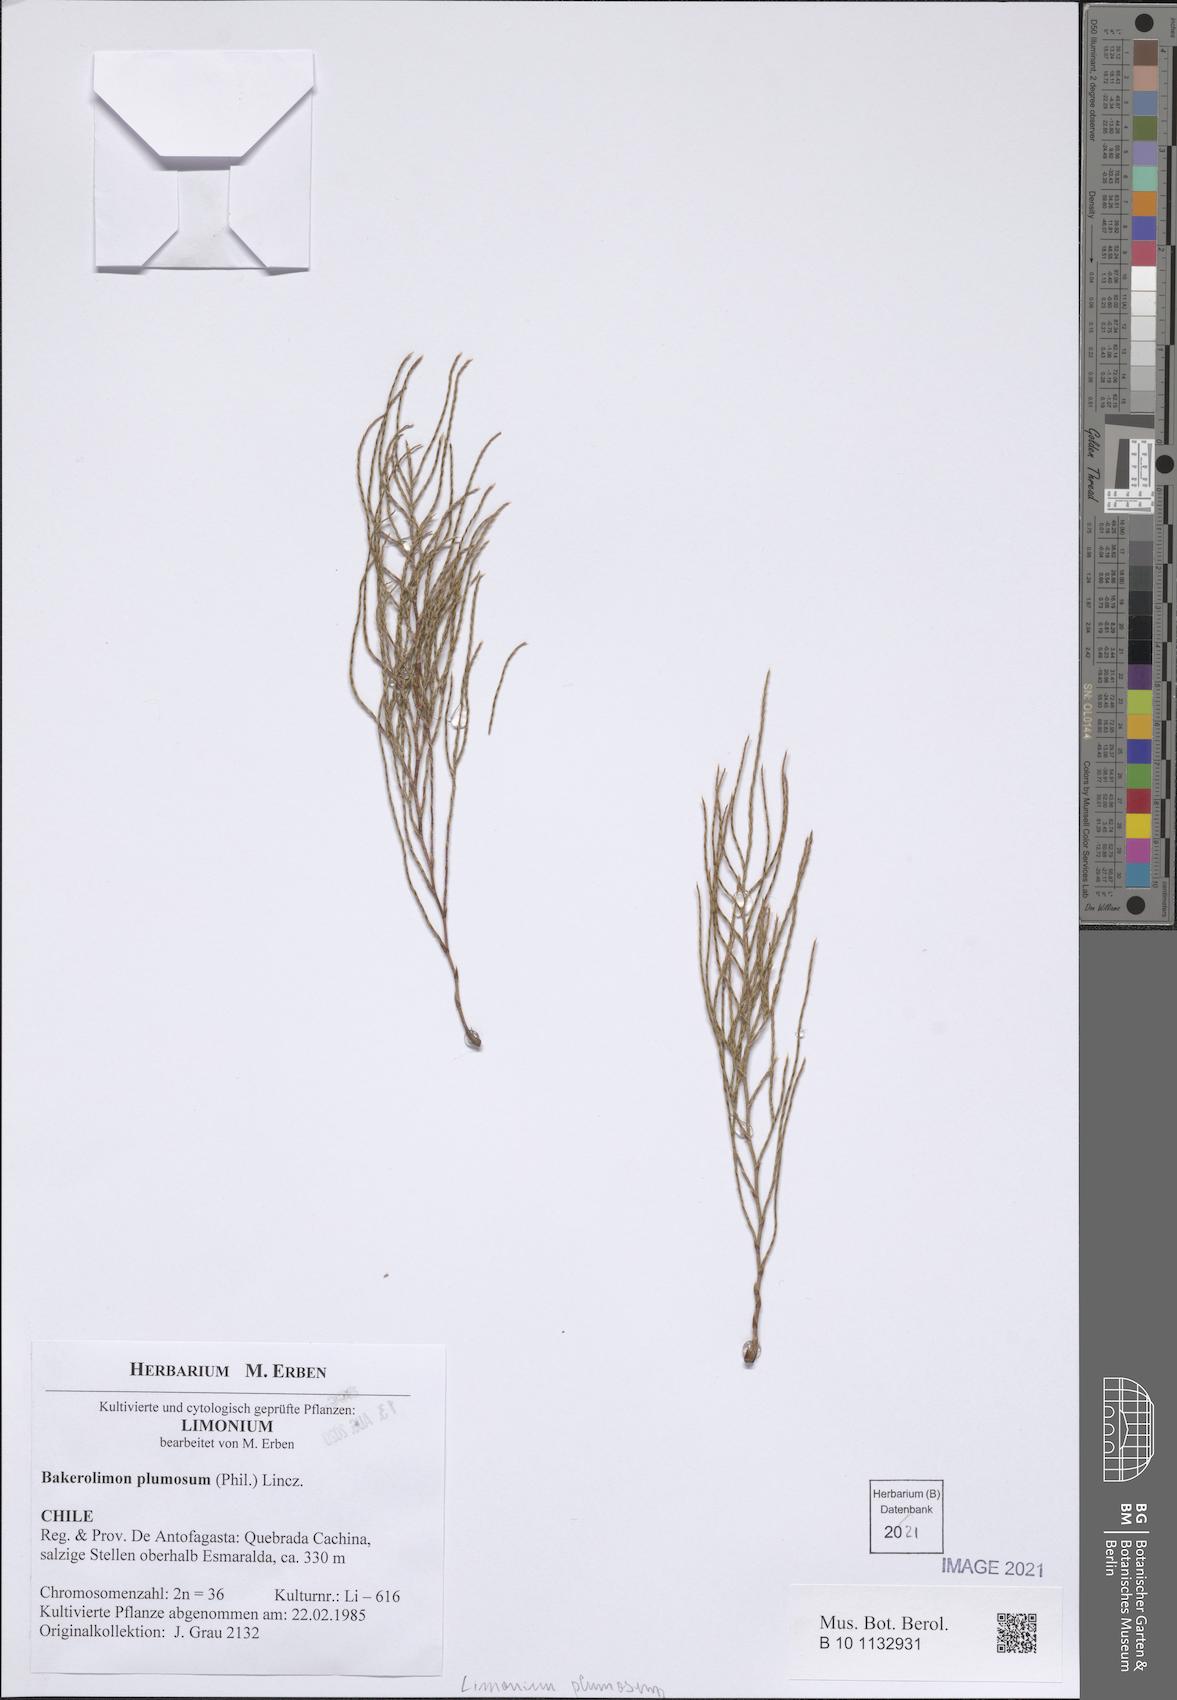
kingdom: Plantae
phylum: Tracheophyta
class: Magnoliopsida
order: Caryophyllales
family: Plumbaginaceae
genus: Bakerolimon
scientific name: Bakerolimon plumosum
